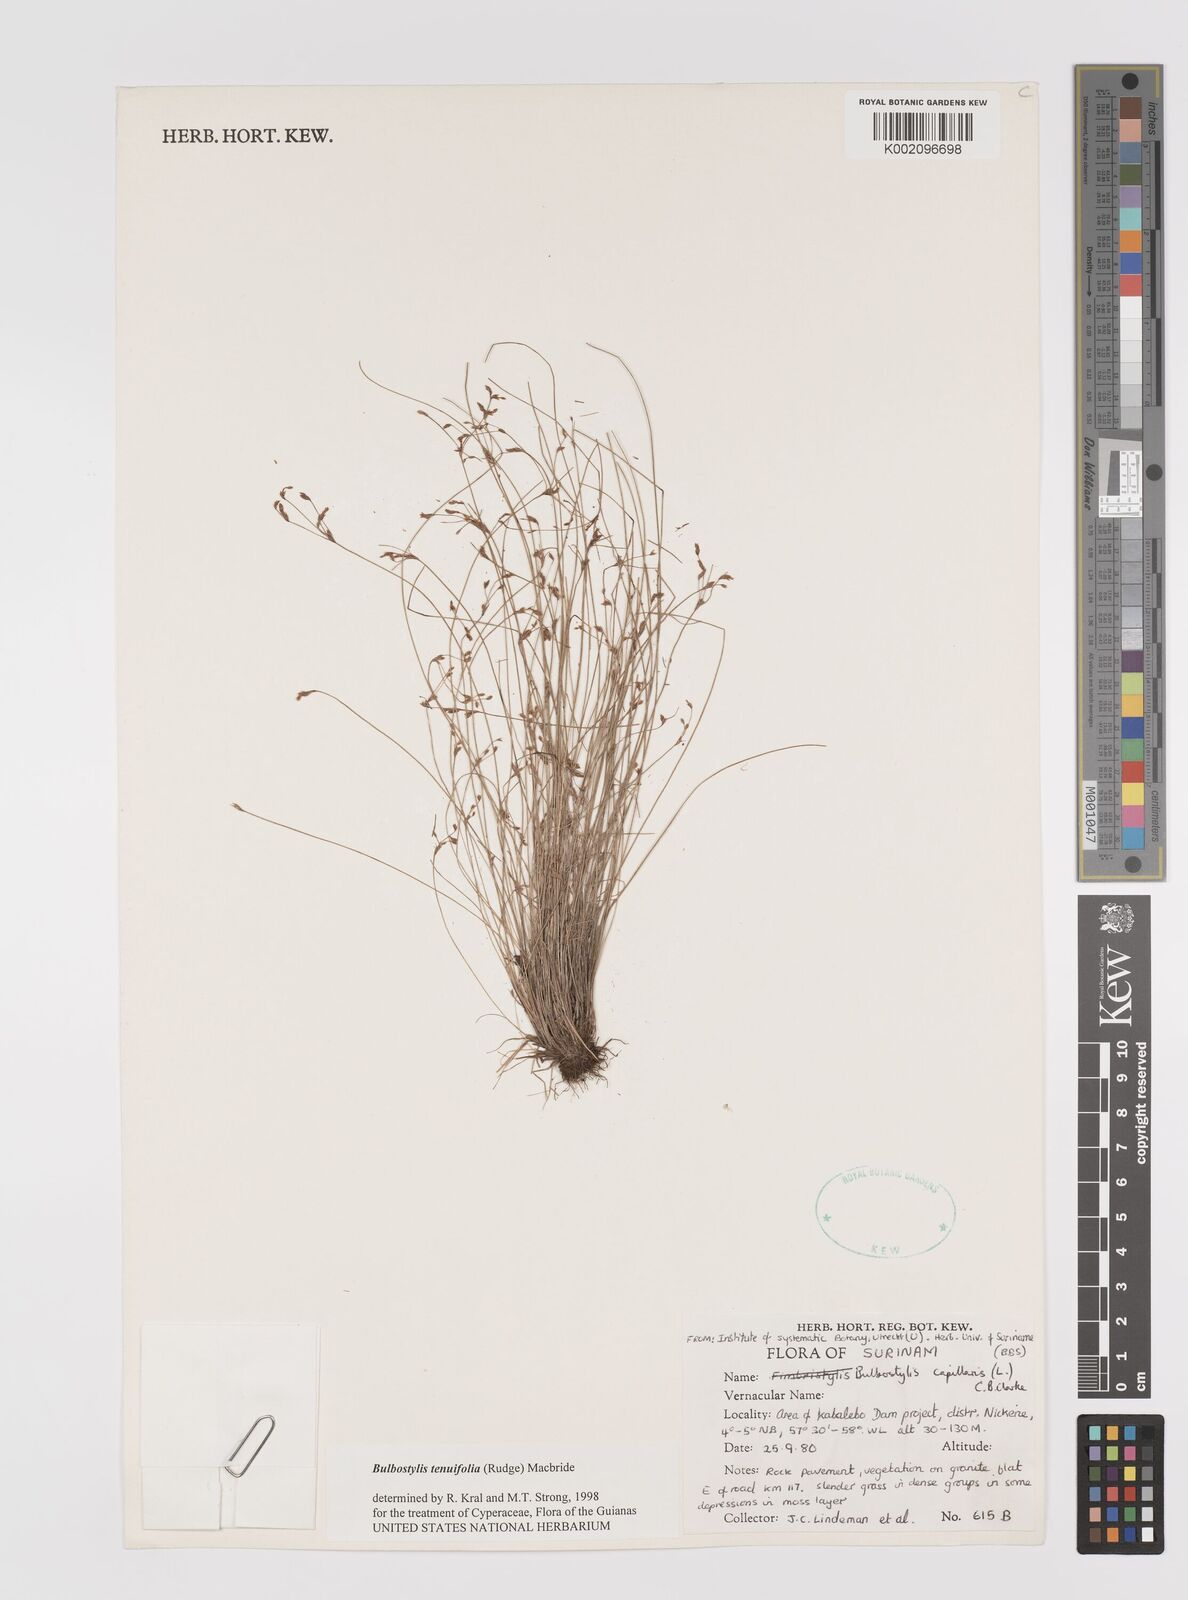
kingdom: Plantae
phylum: Tracheophyta
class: Liliopsida
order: Poales
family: Cyperaceae
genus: Bulbostylis
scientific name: Bulbostylis tenuifolia
